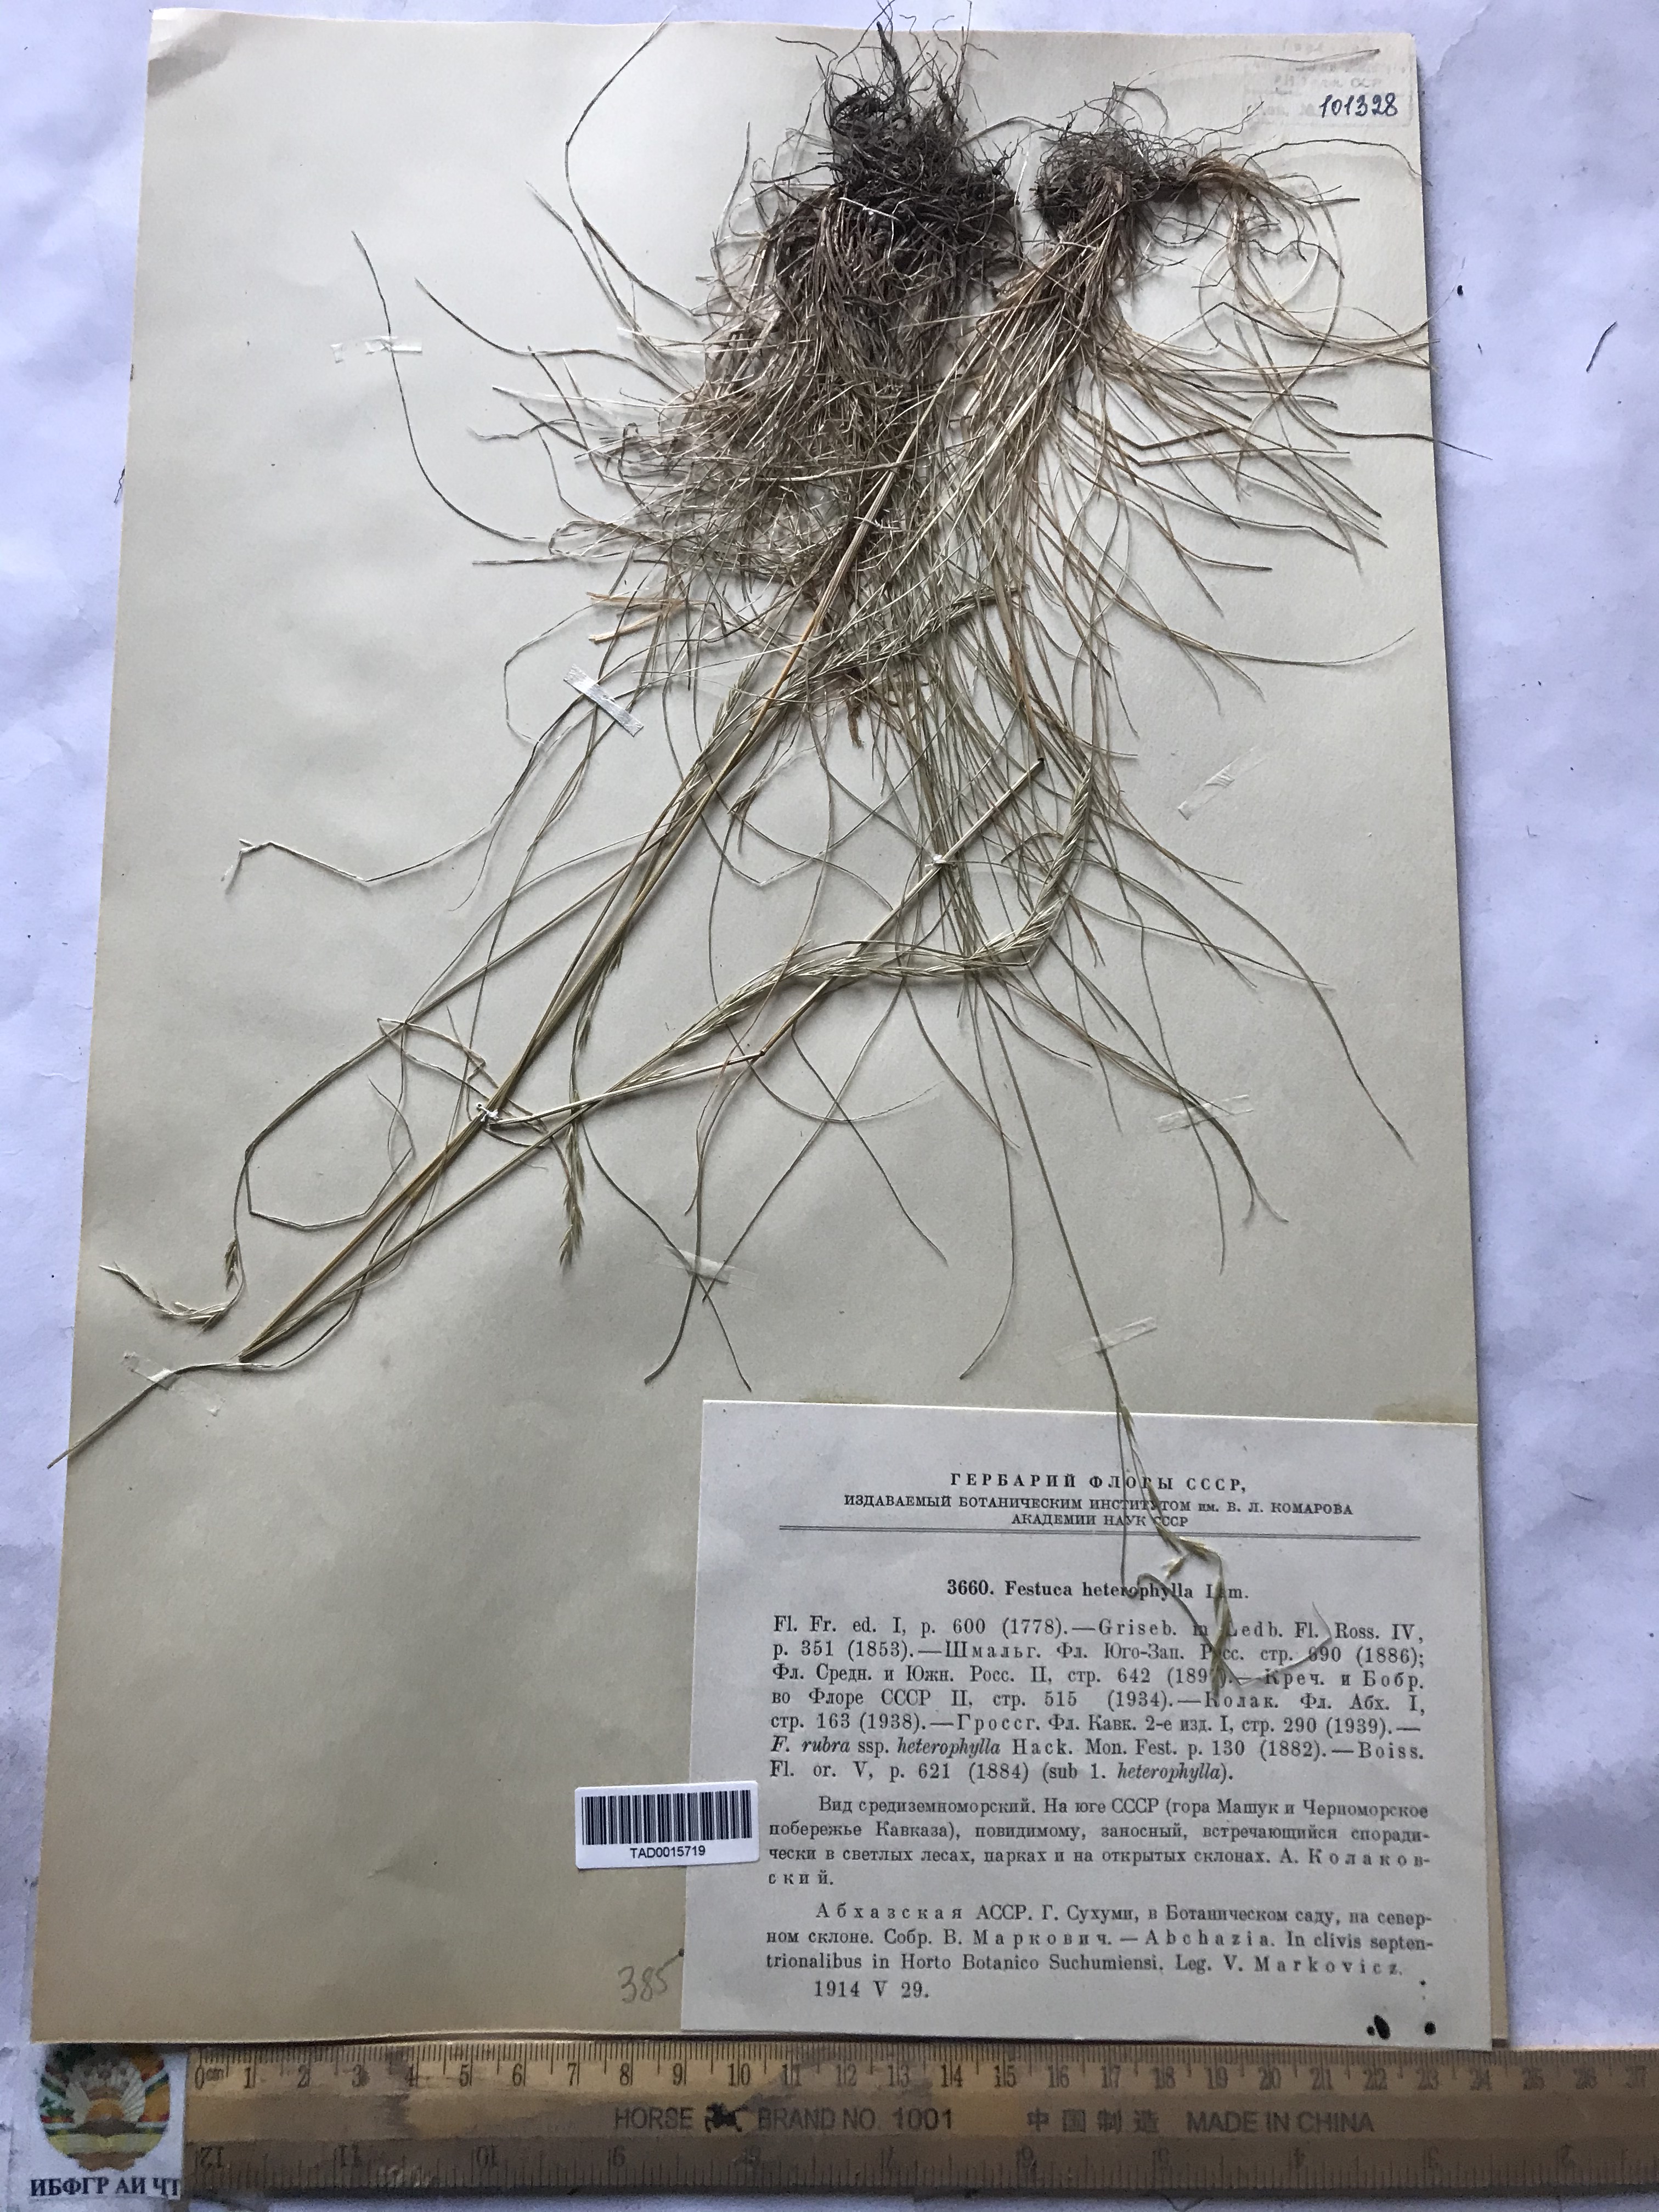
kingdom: Plantae
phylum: Tracheophyta
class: Liliopsida
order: Poales
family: Poaceae
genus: Festuca
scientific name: Festuca heterophylla
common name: Various-leaved fescue
